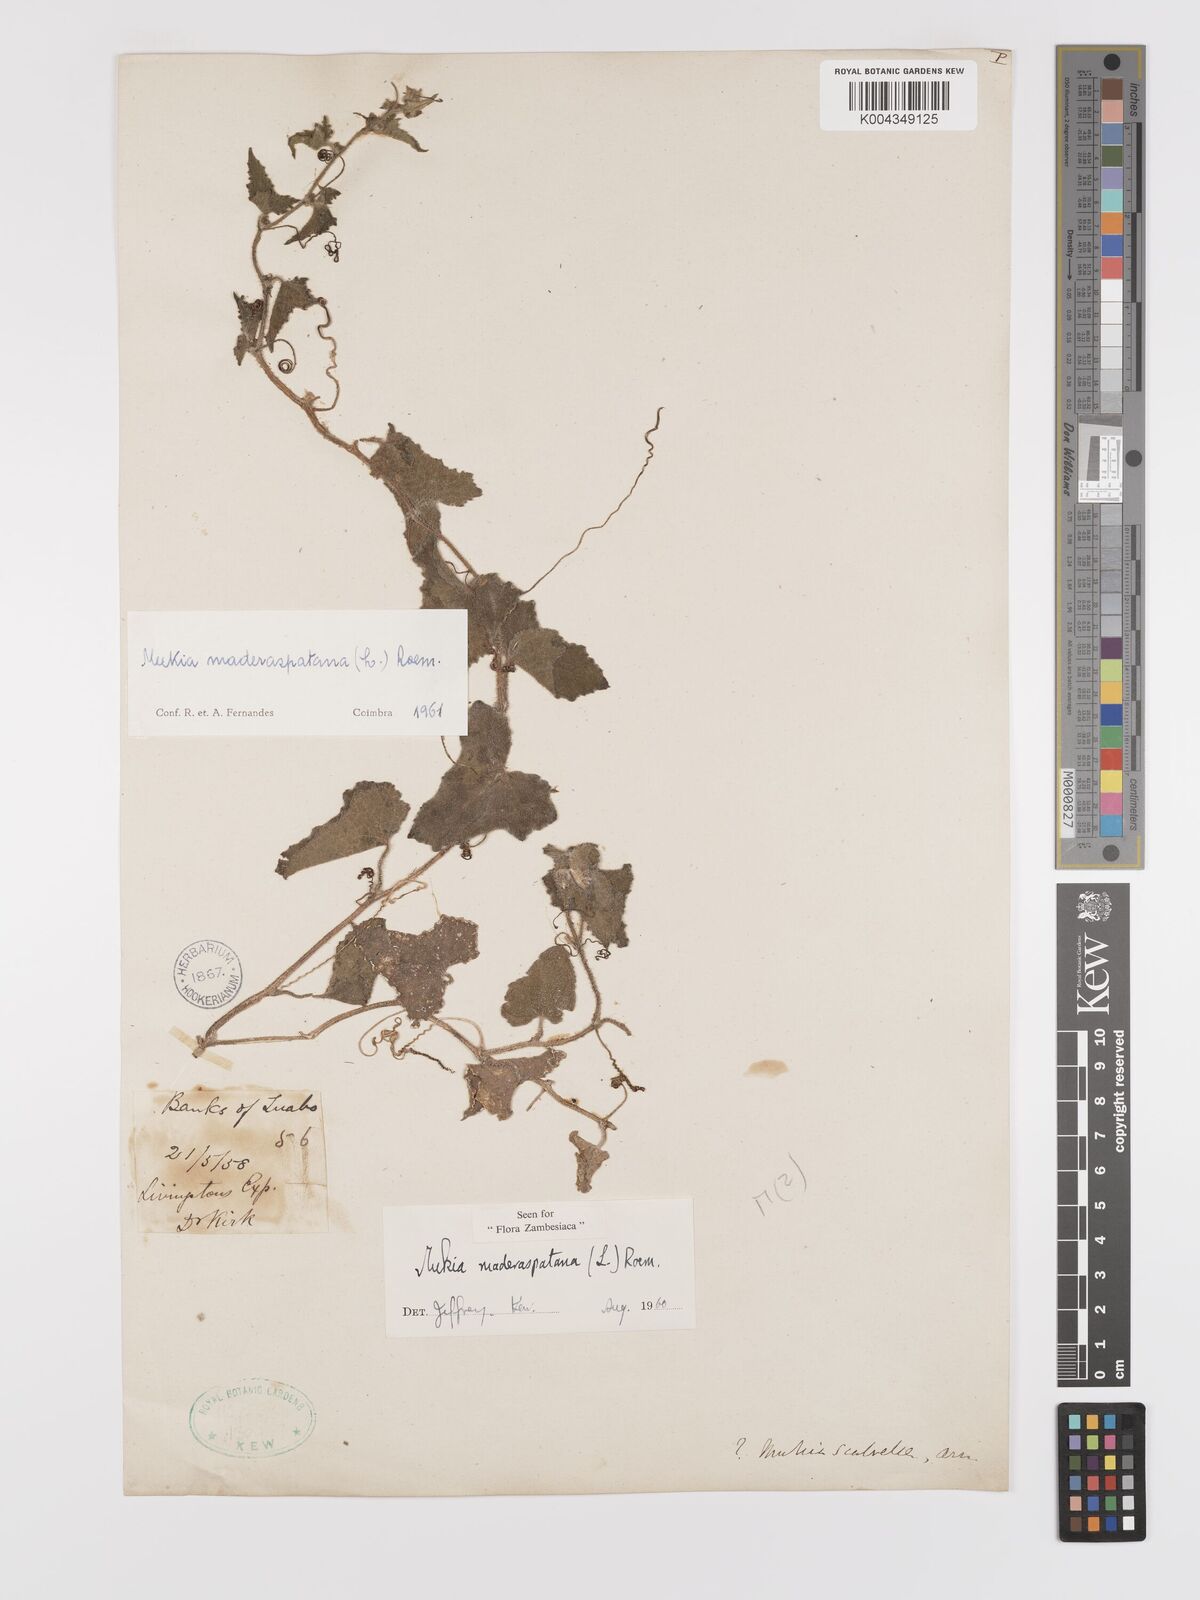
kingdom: Plantae
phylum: Tracheophyta
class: Magnoliopsida
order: Cucurbitales
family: Cucurbitaceae
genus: Cucumis
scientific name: Cucumis maderaspatanus
